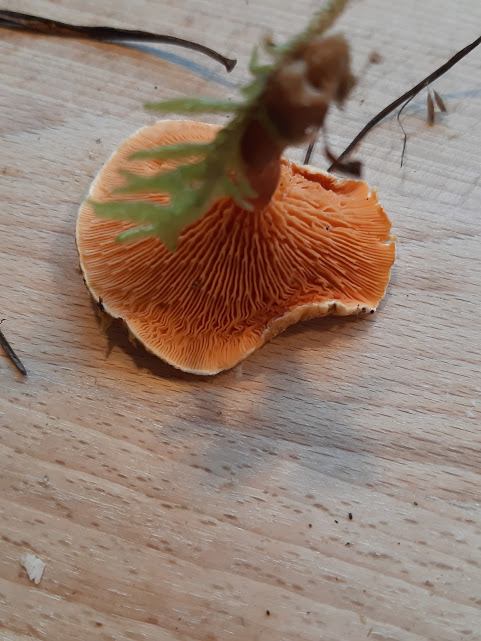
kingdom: Fungi
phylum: Basidiomycota
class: Agaricomycetes
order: Boletales
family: Hygrophoropsidaceae
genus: Hygrophoropsis
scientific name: Hygrophoropsis aurantiaca
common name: almindelig orangekantarel
